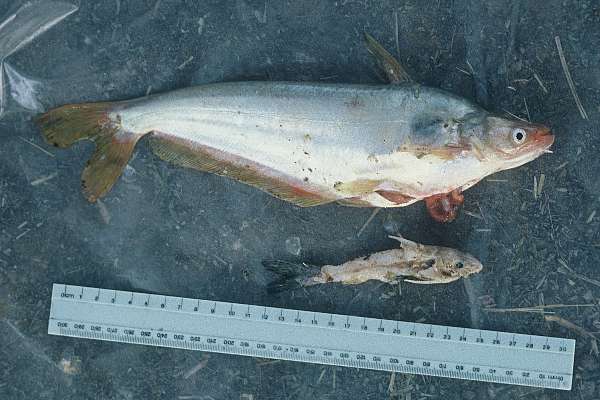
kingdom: Animalia
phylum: Chordata
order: Siluriformes
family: Schilbeidae
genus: Schilbe
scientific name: Schilbe intermedius
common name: Silver catfish
